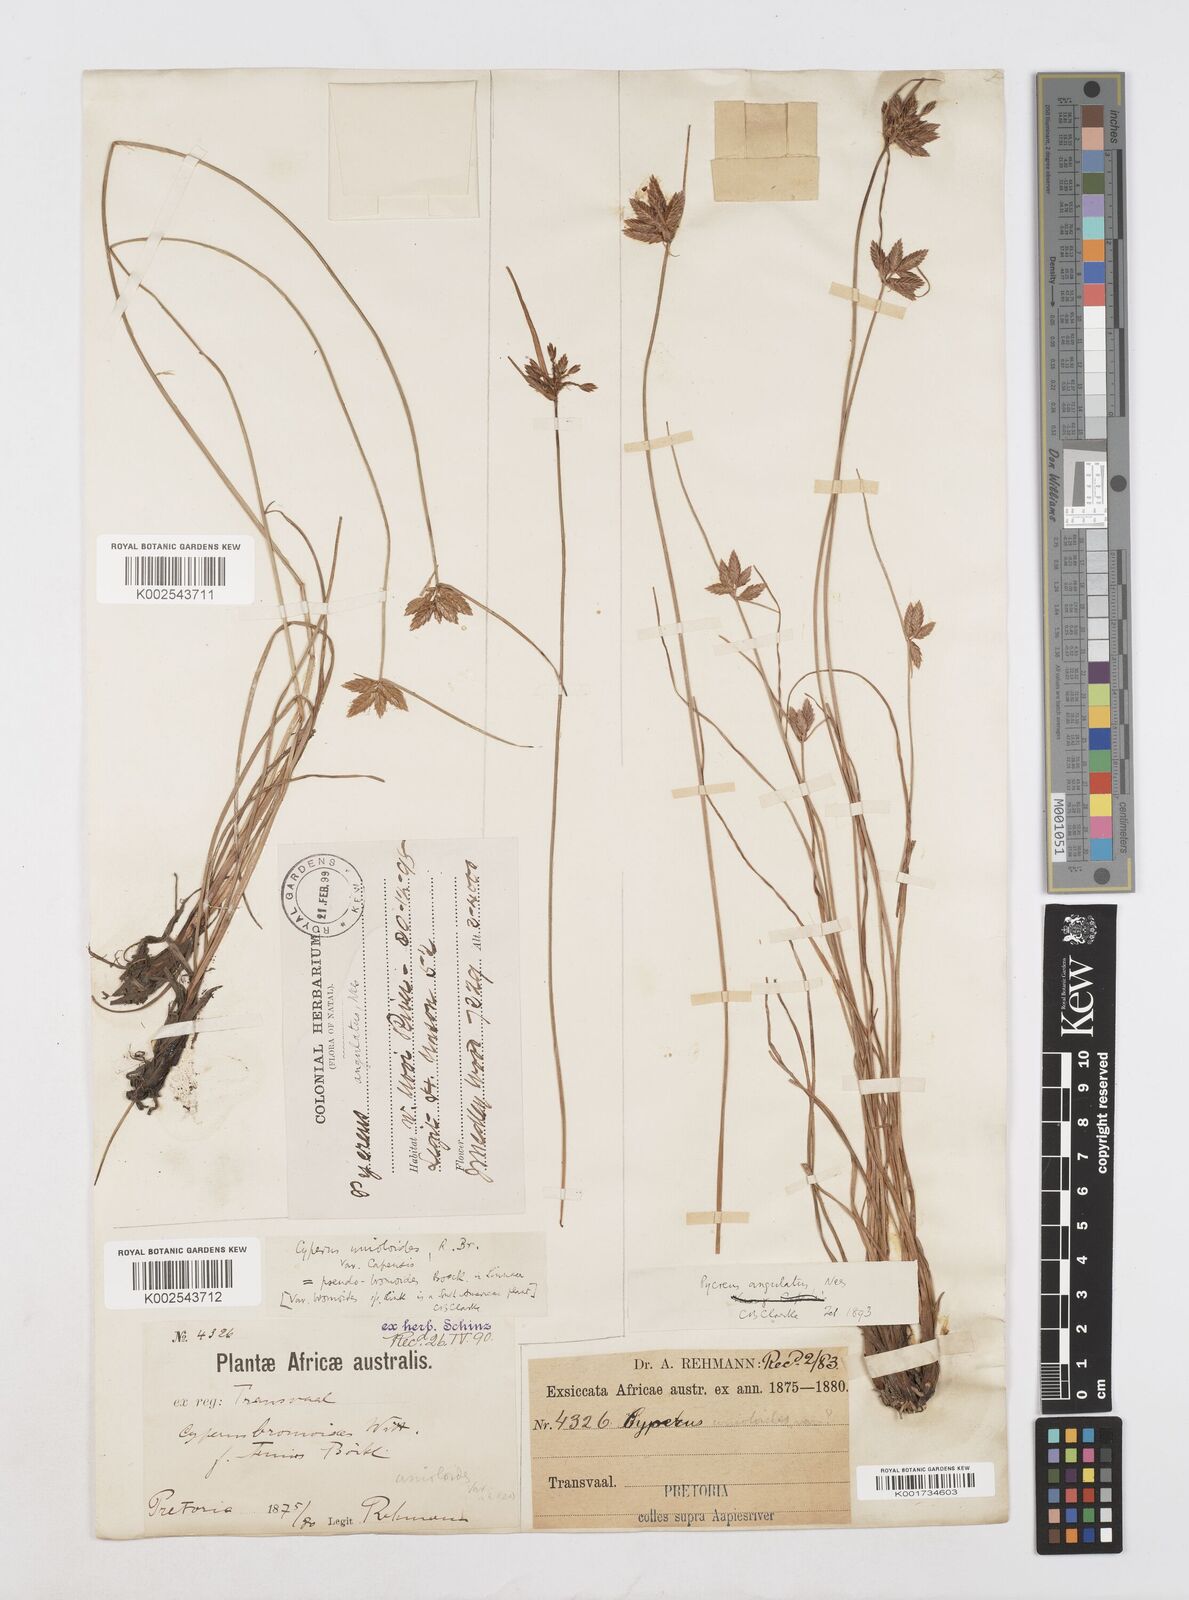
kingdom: Plantae
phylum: Tracheophyta
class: Liliopsida
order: Poales
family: Cyperaceae
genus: Cyperus
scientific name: Cyperus unioloides
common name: Uniola flatsedge
